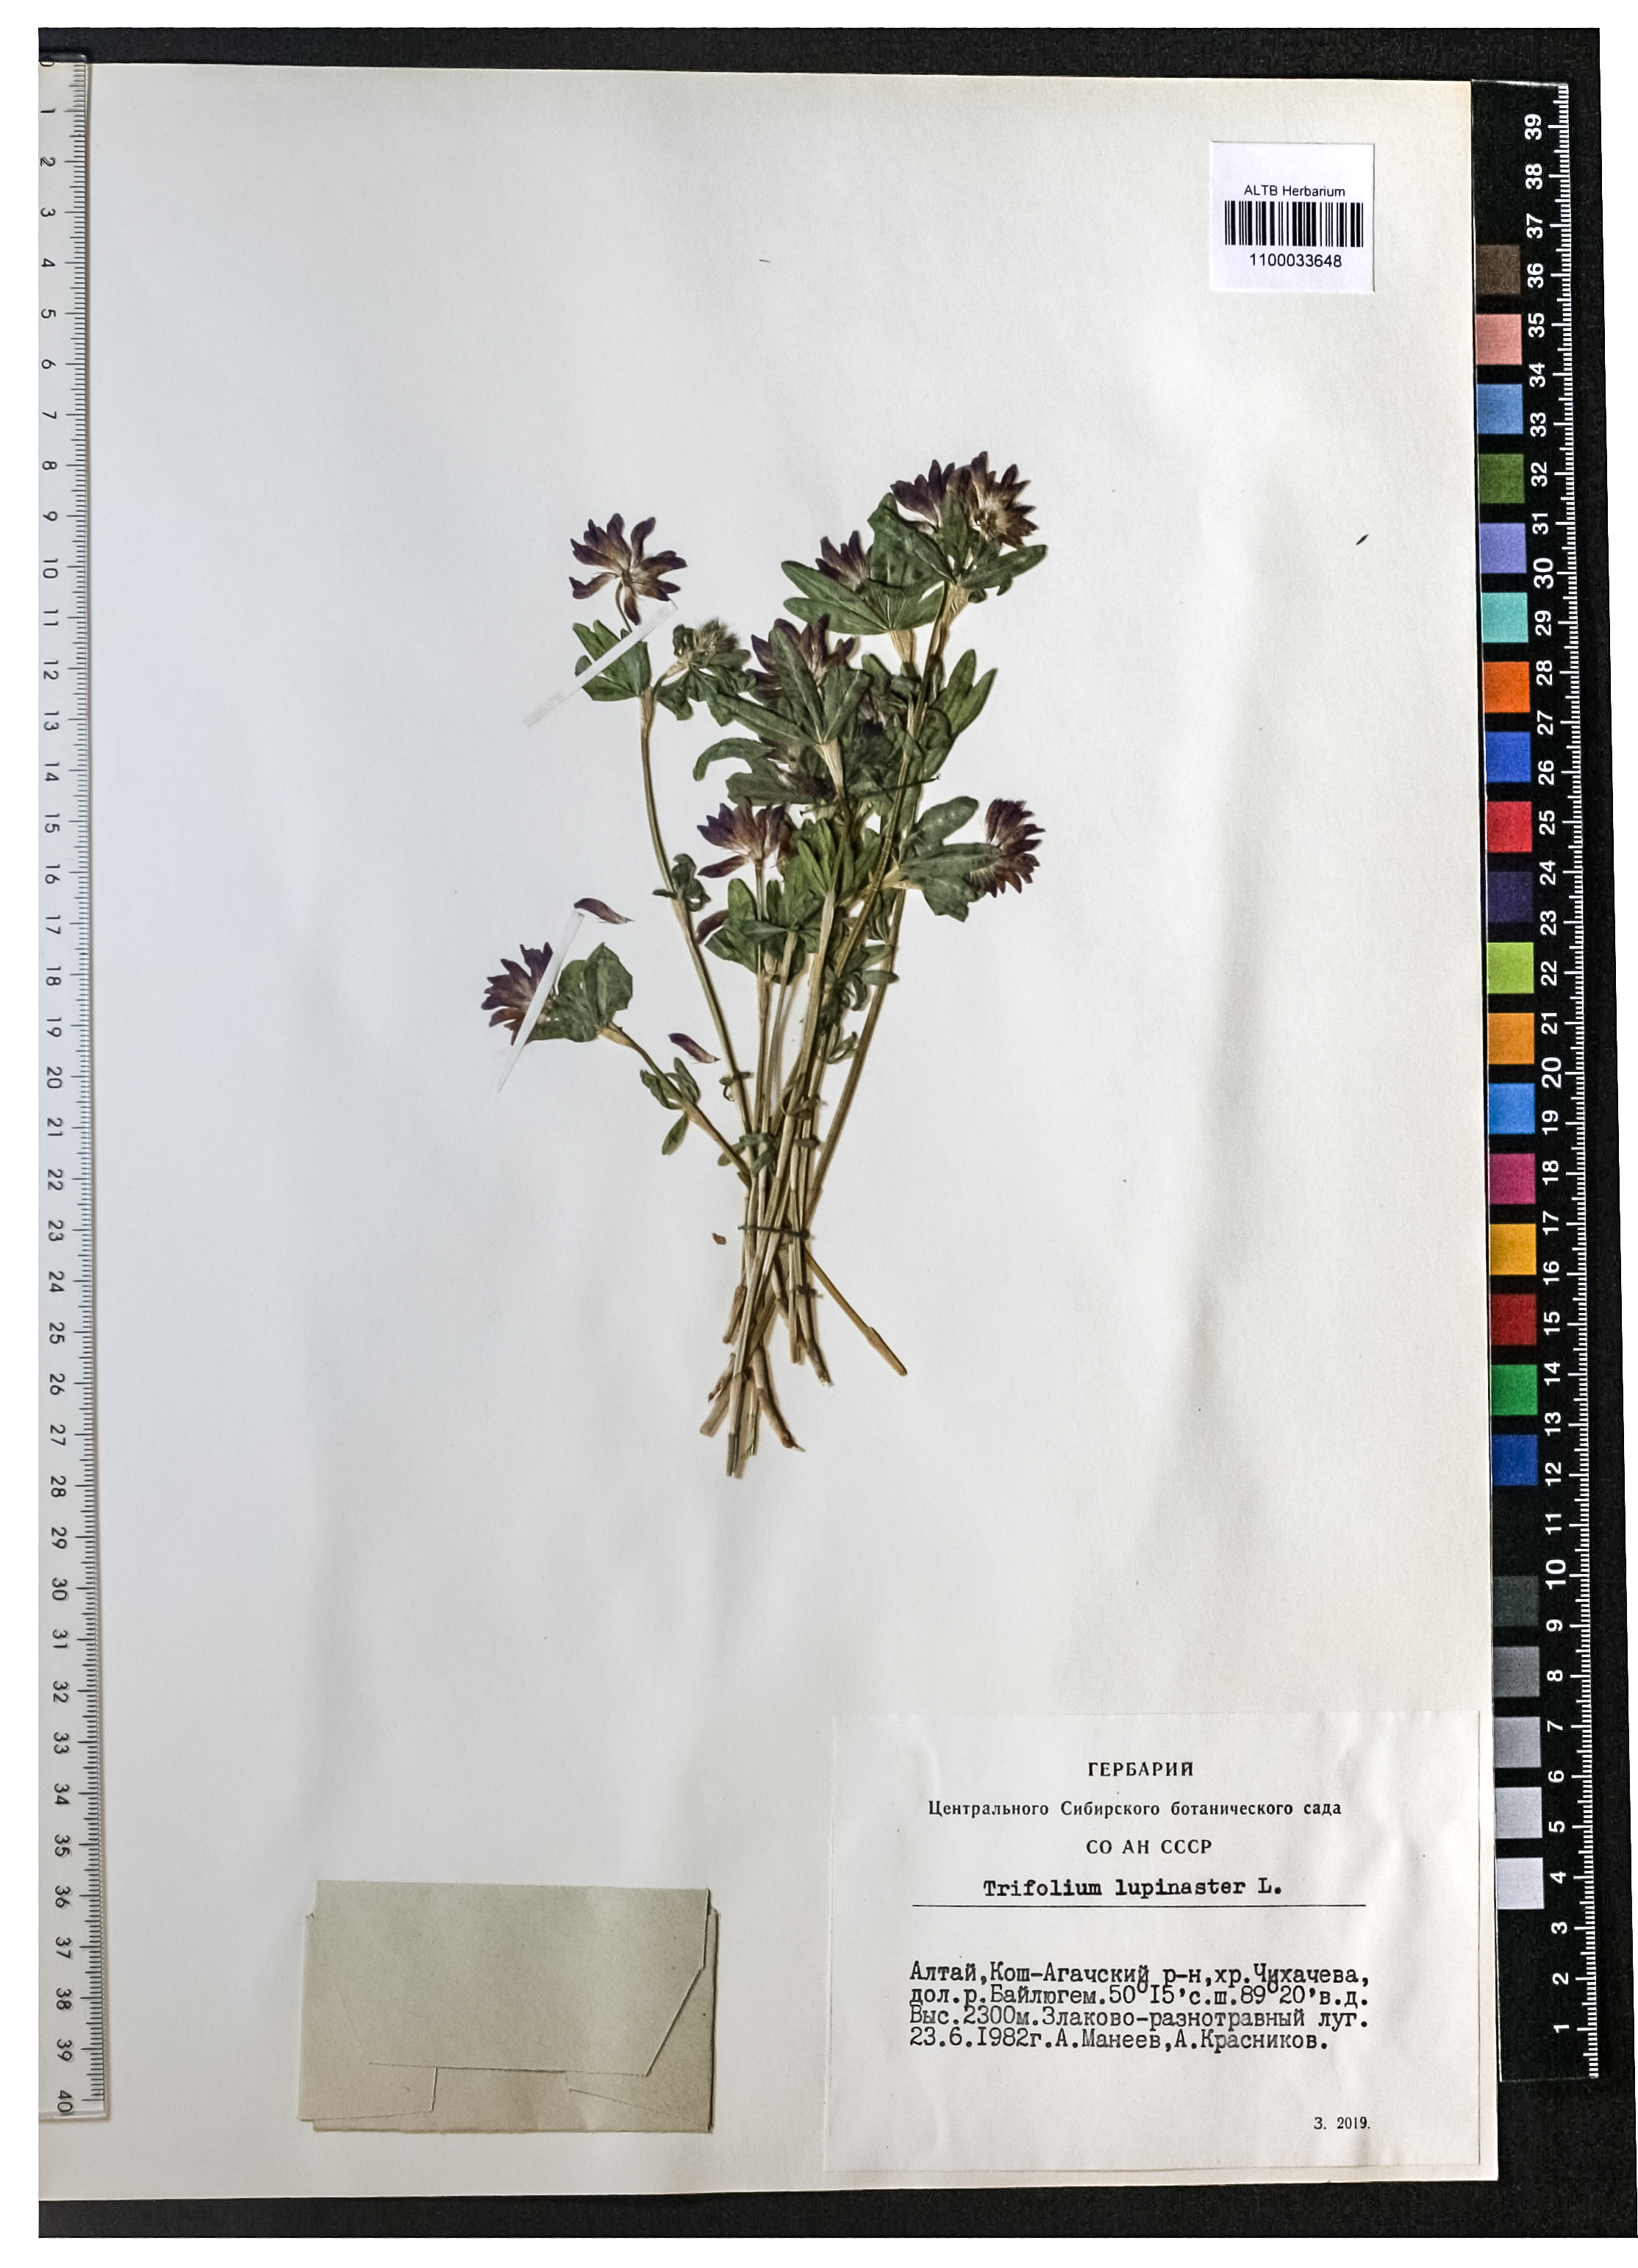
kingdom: Plantae
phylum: Tracheophyta
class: Magnoliopsida
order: Fabales
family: Fabaceae
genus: Trifolium
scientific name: Trifolium lupinaster
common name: Lupine clover
